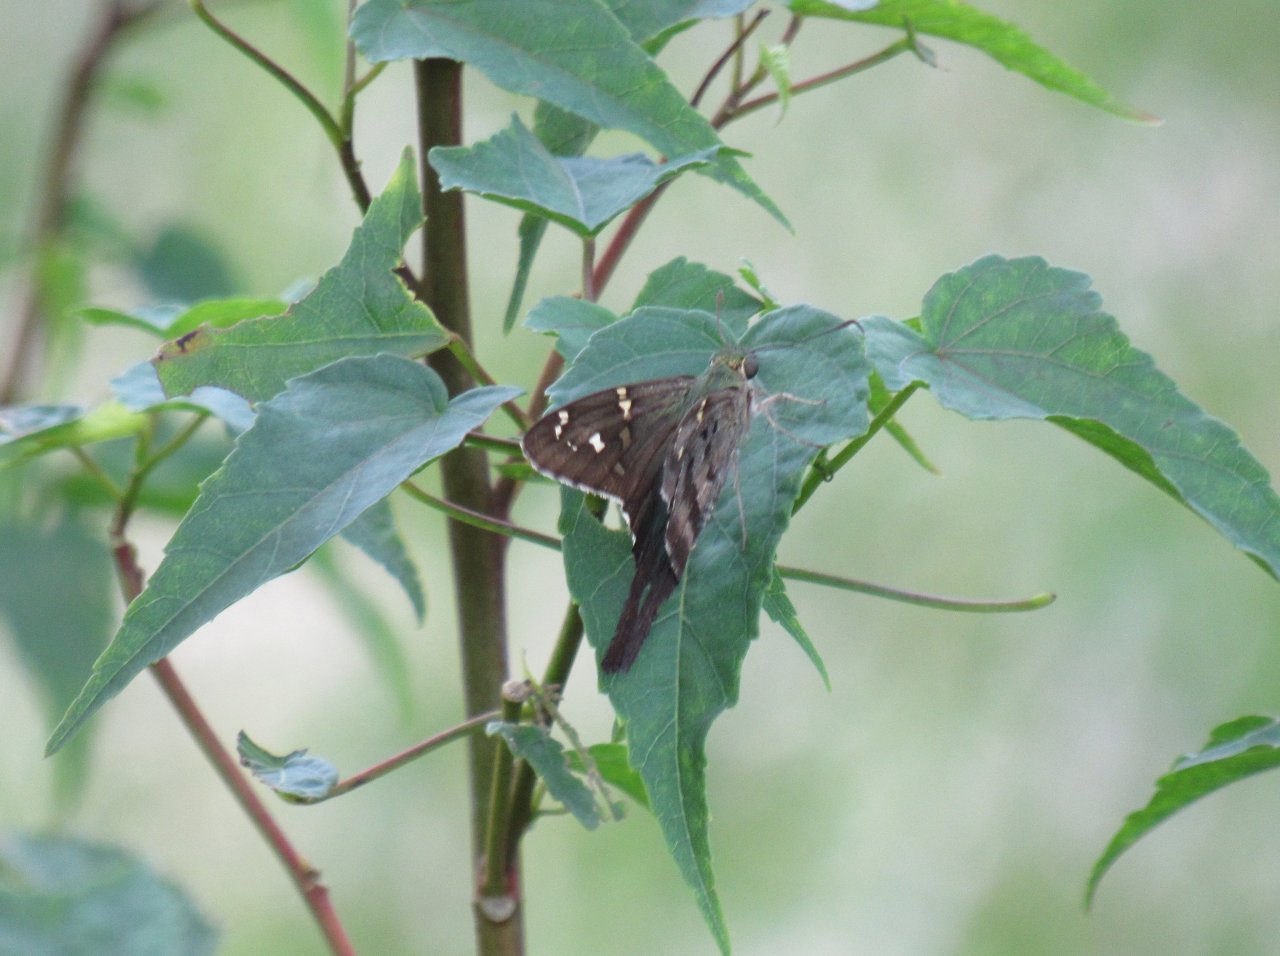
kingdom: Animalia
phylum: Arthropoda
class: Insecta
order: Lepidoptera
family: Hesperiidae
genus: Urbanus
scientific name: Urbanus proteus
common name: Long-tailed Skipper
